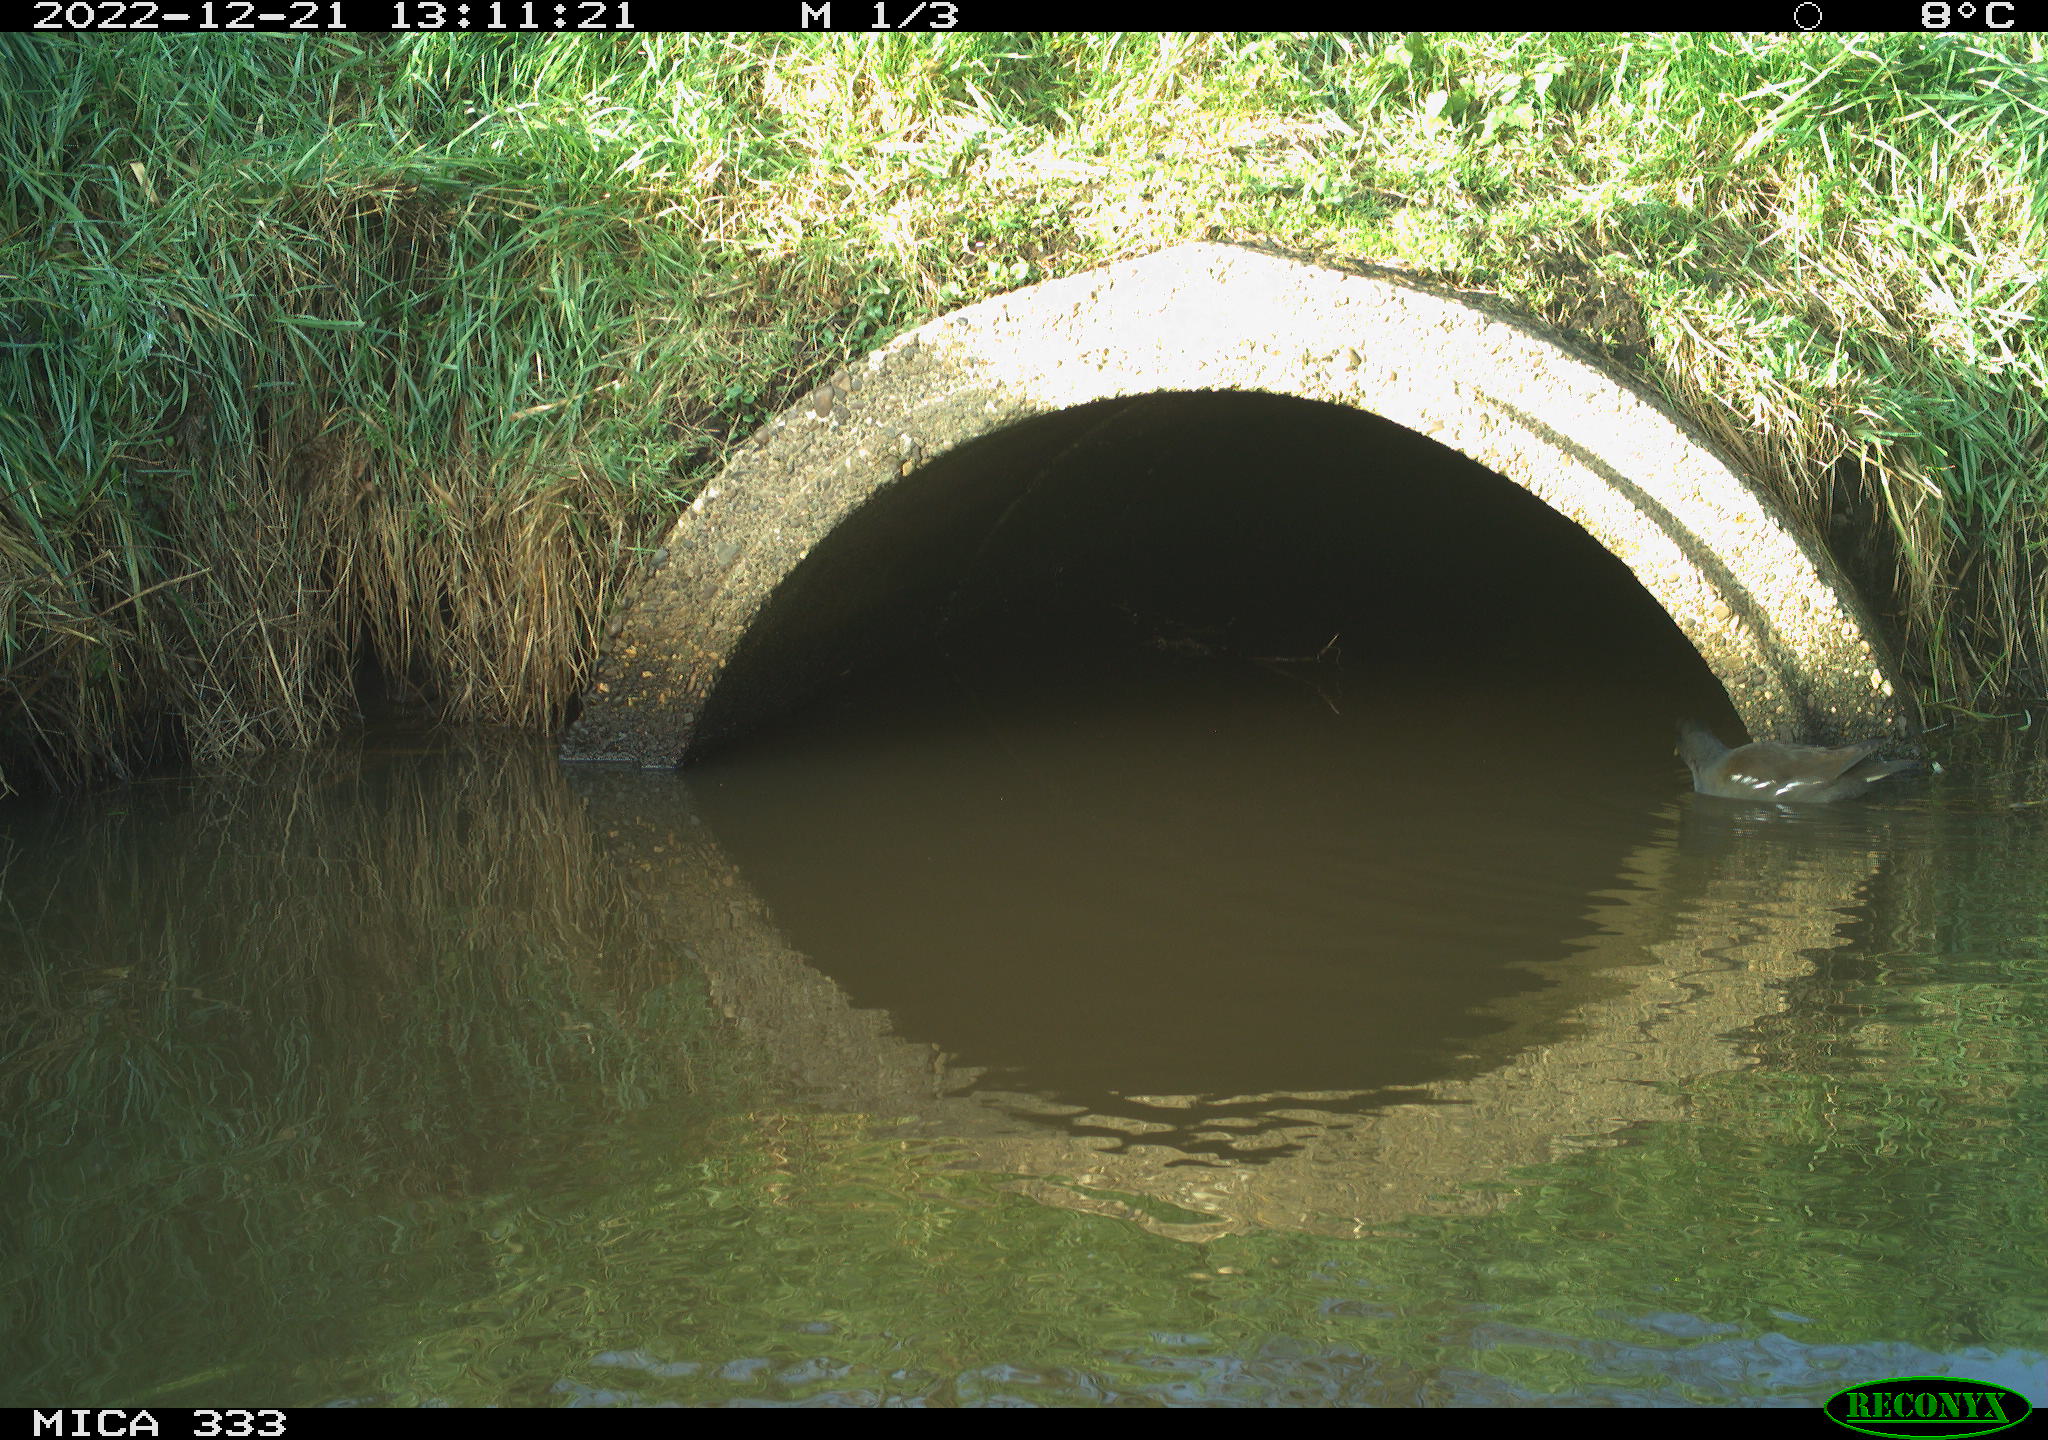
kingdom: Animalia
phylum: Chordata
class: Aves
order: Gruiformes
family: Rallidae
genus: Gallinula
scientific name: Gallinula chloropus
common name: Common moorhen
